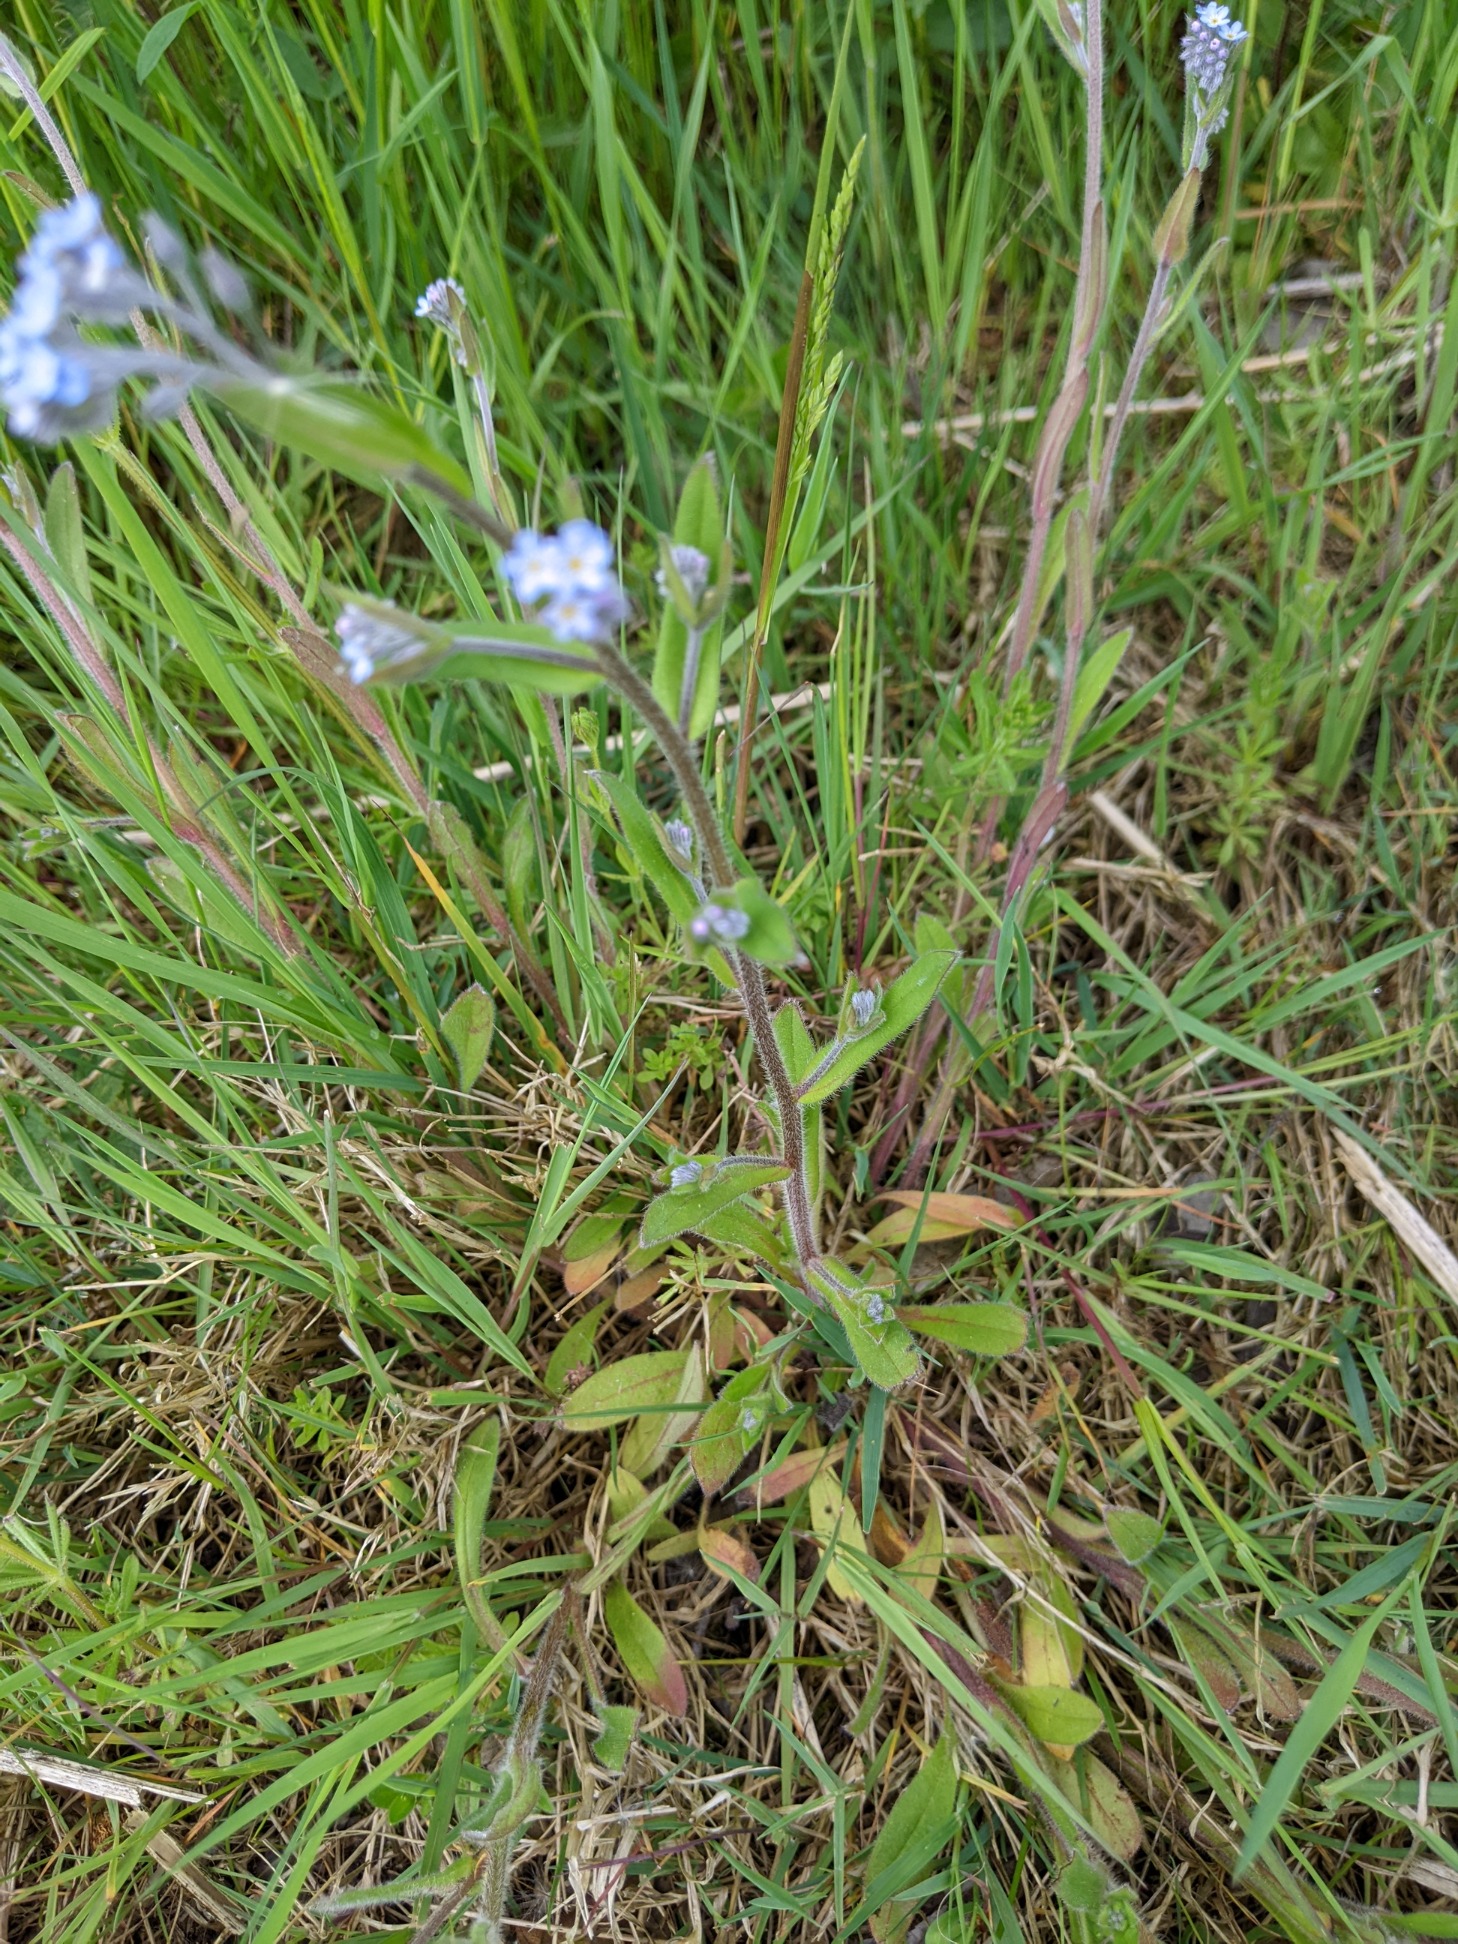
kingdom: Plantae
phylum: Tracheophyta
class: Magnoliopsida
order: Boraginales
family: Boraginaceae
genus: Myosotis
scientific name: Myosotis arvensis
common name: Mark-forglemmigej
